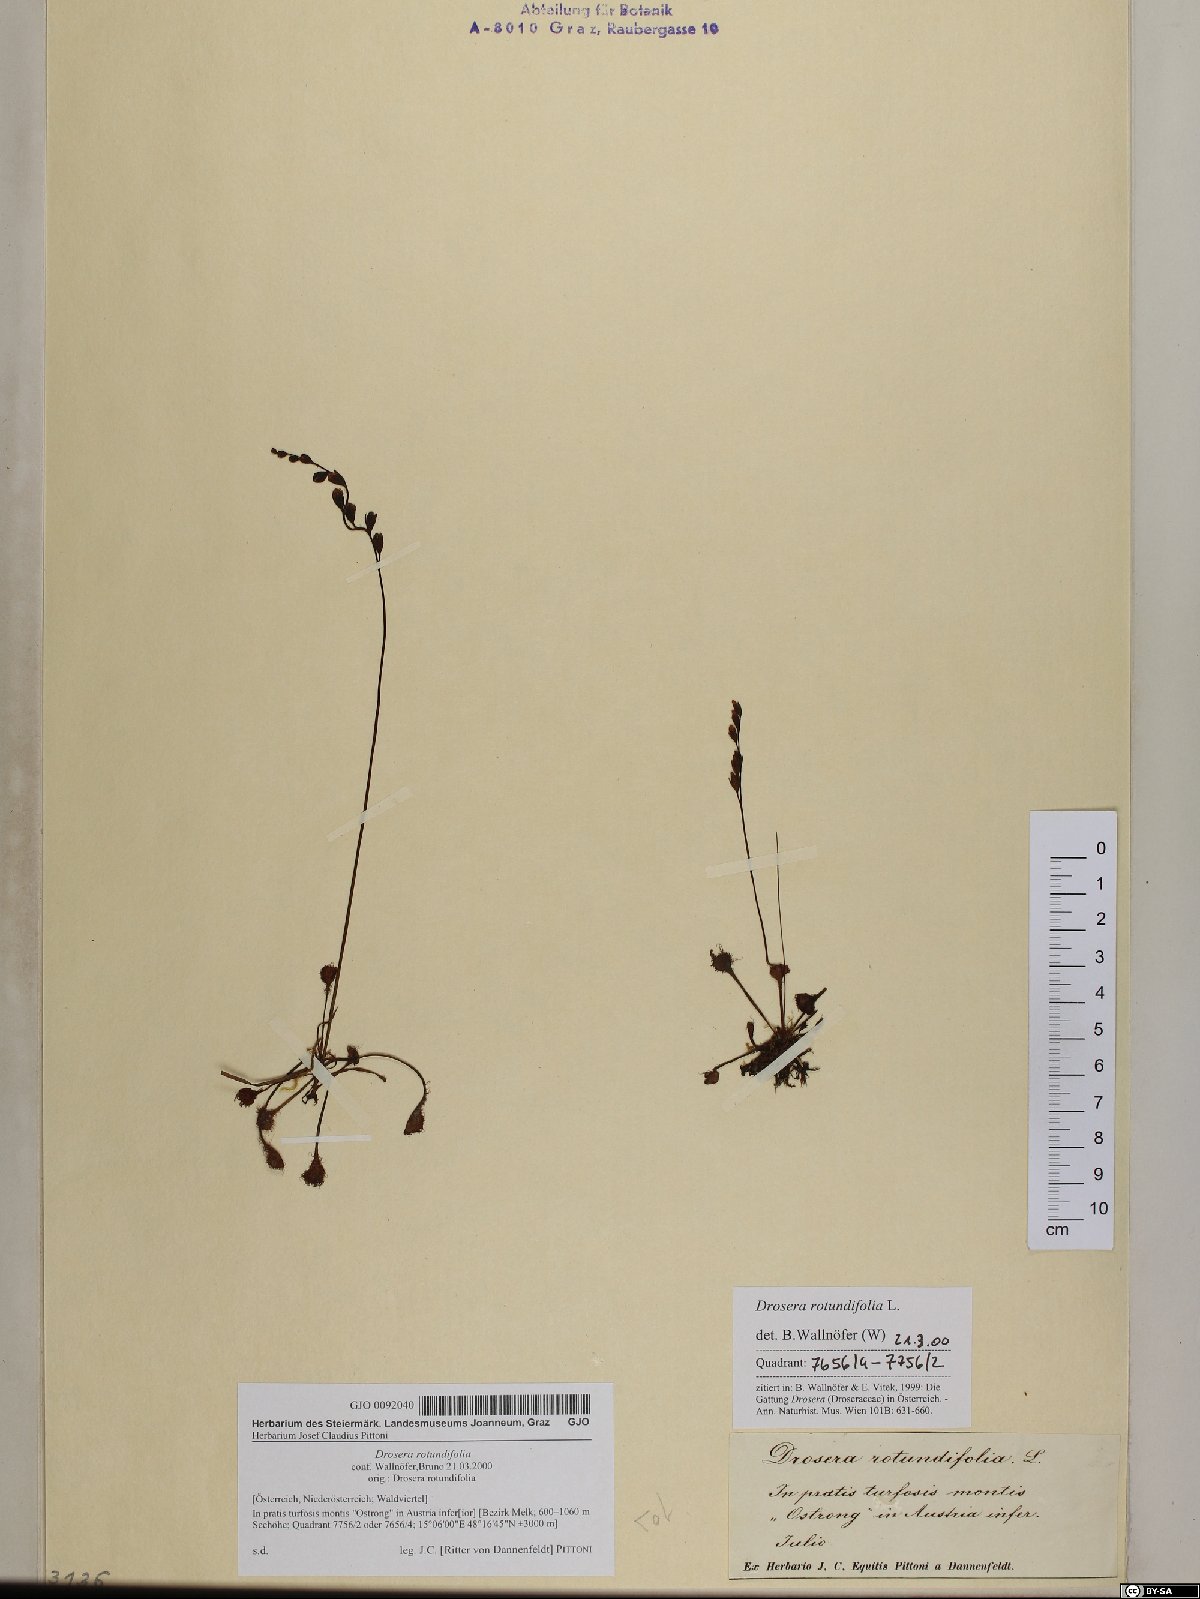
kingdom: Plantae
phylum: Tracheophyta
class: Magnoliopsida
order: Caryophyllales
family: Droseraceae
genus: Drosera
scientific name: Drosera rotundifolia
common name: Round-leaved sundew
